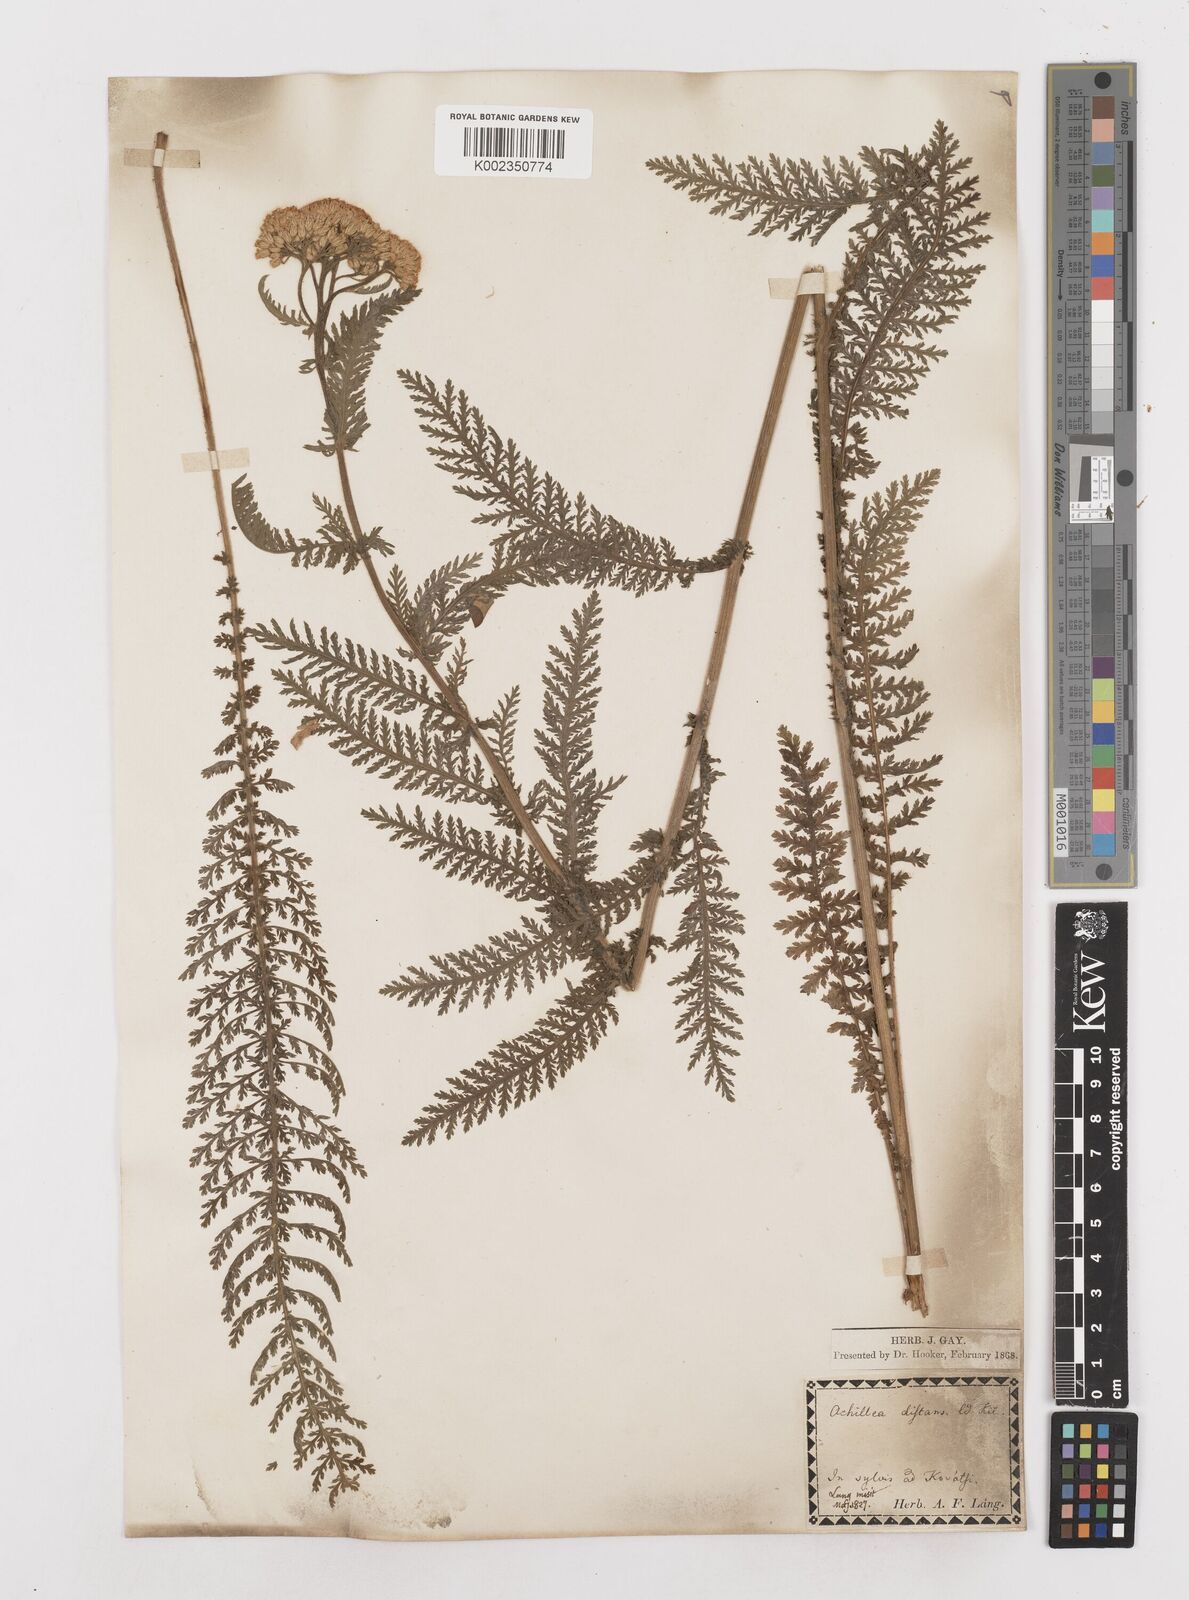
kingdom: Plantae
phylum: Tracheophyta
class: Magnoliopsida
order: Asterales
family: Asteraceae
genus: Achillea
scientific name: Achillea distans
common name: Tall yarrow
